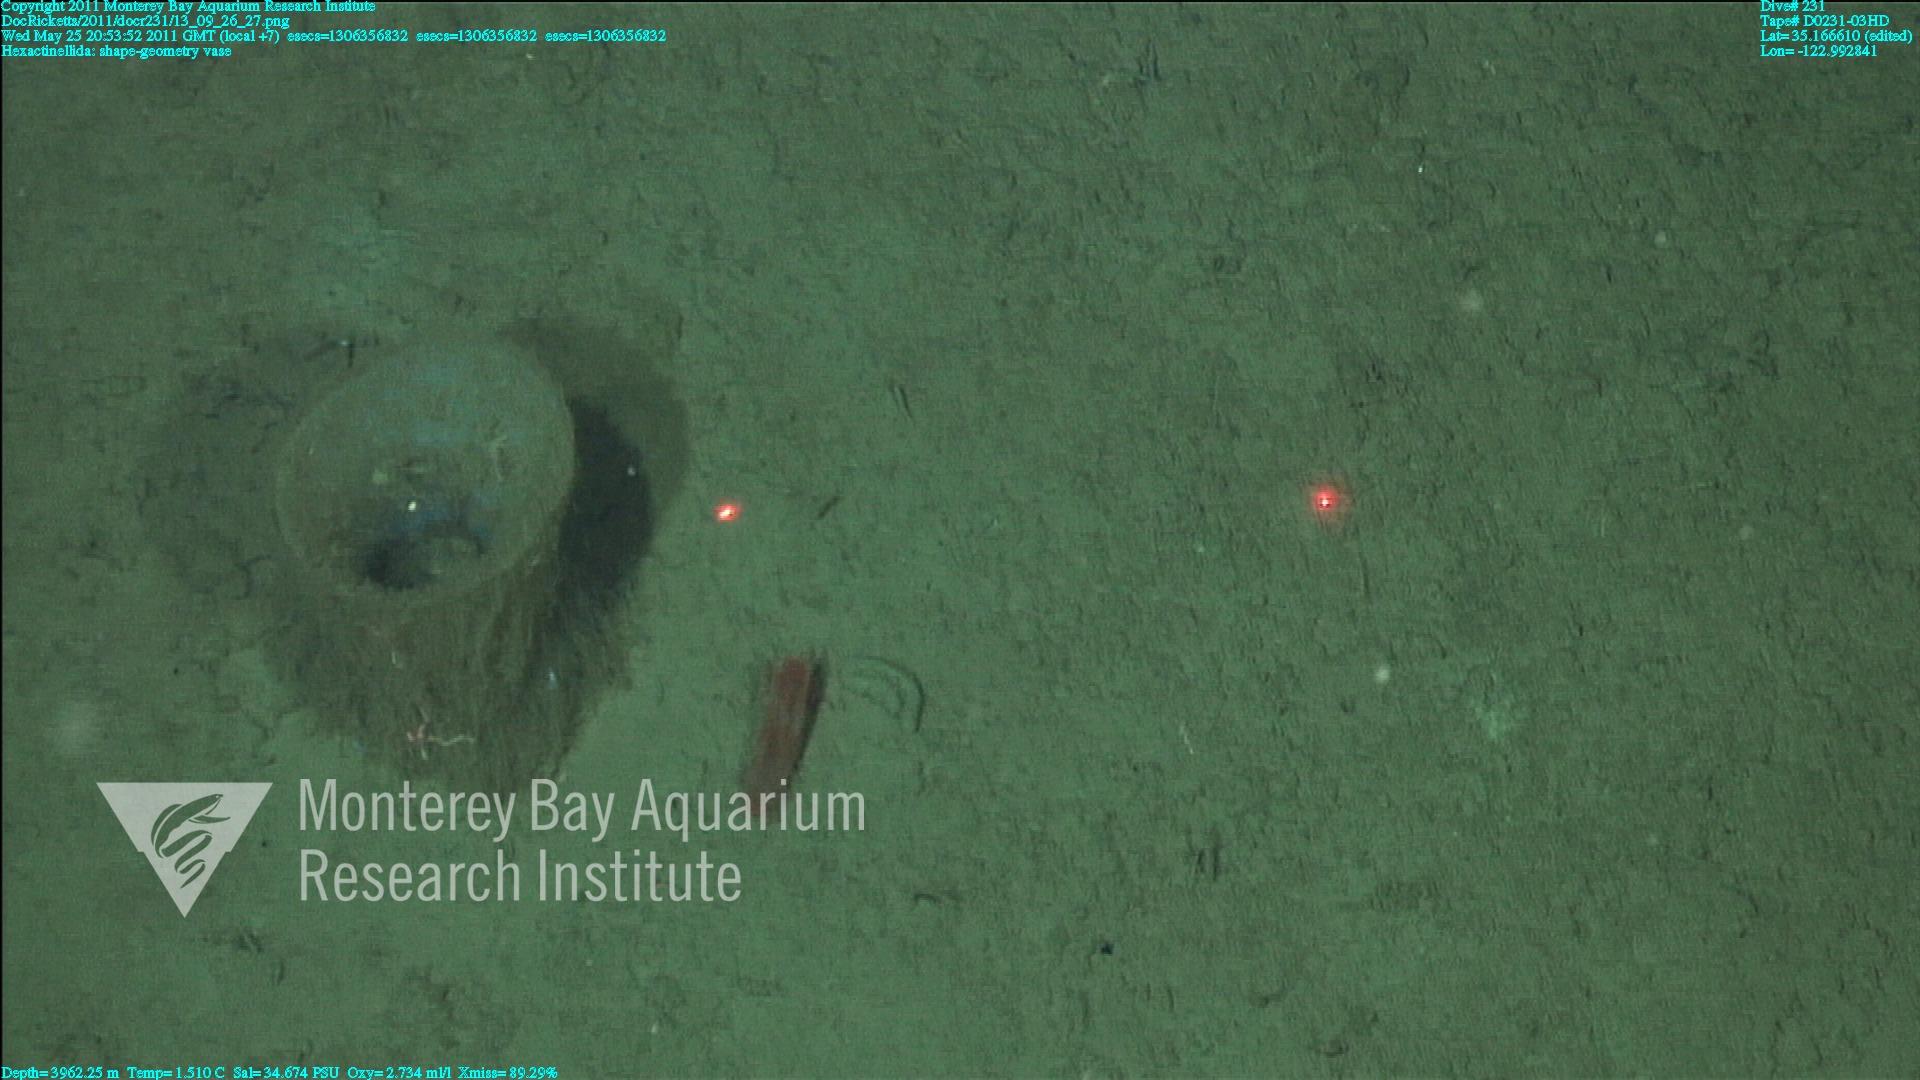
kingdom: Animalia
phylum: Porifera
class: Hexactinellida
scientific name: Hexactinellida
